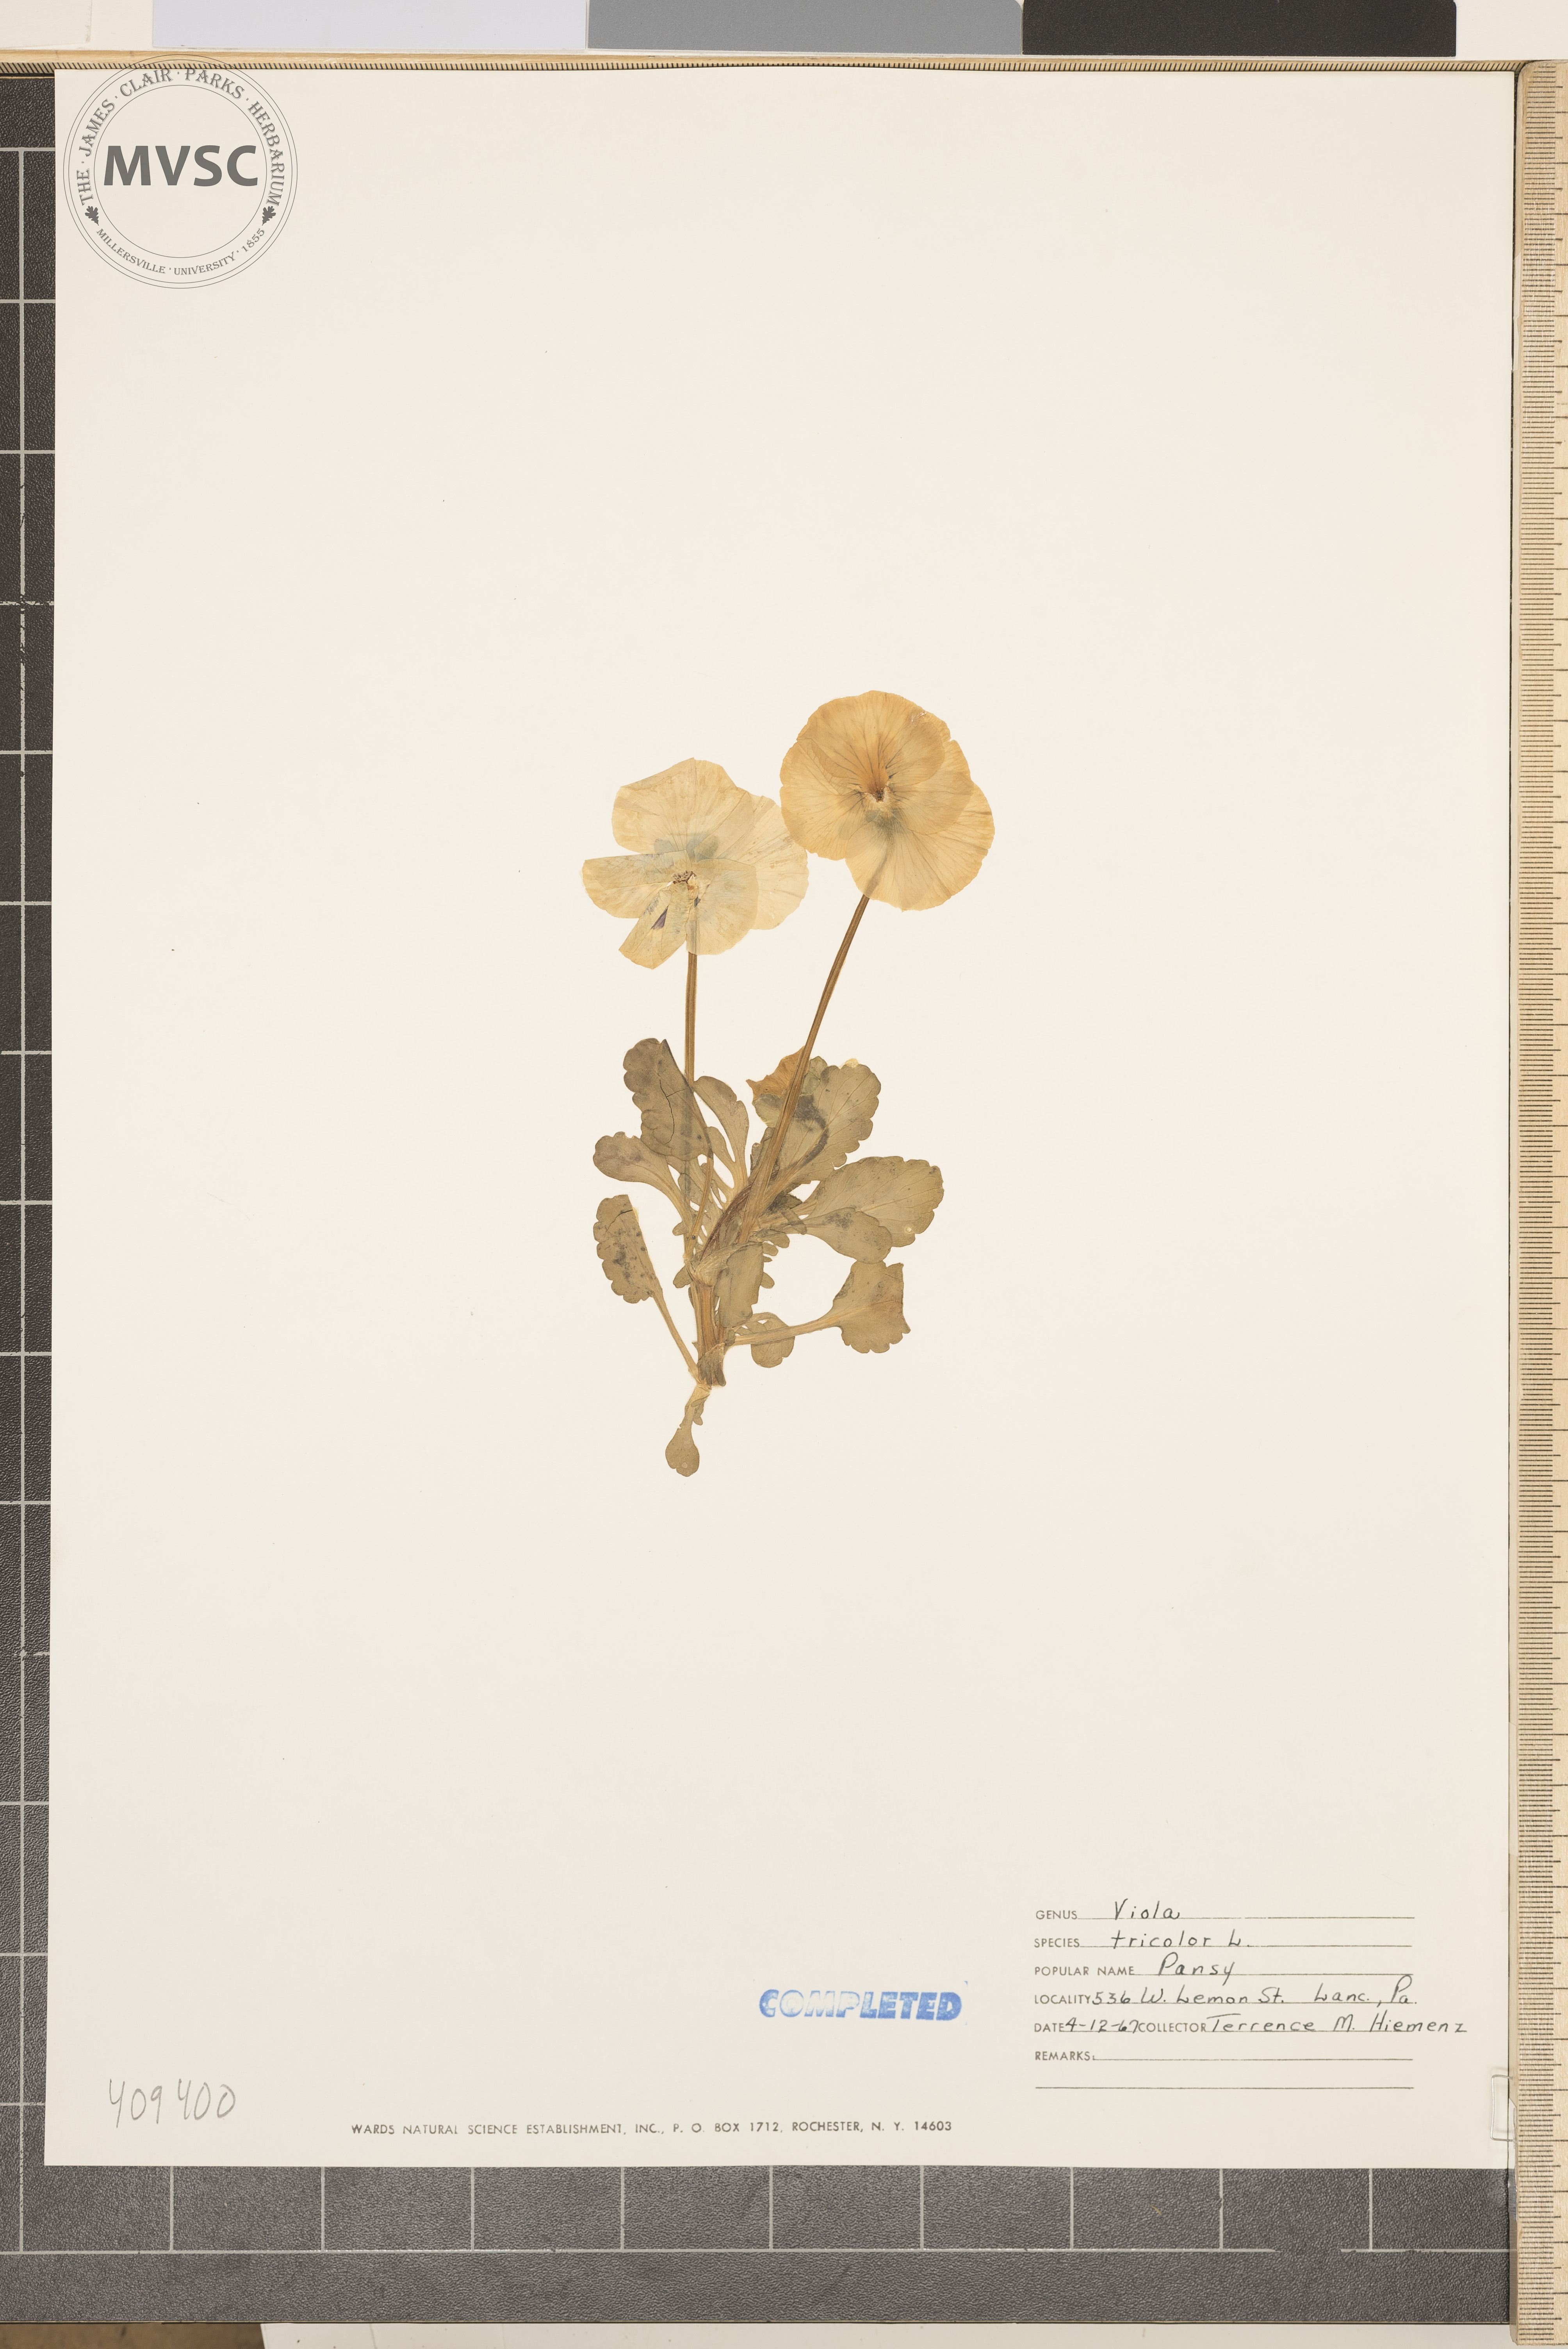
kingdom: Plantae
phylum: Tracheophyta
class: Magnoliopsida
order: Malpighiales
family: Violaceae
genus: Viola
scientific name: Viola tricolor
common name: Pansy
